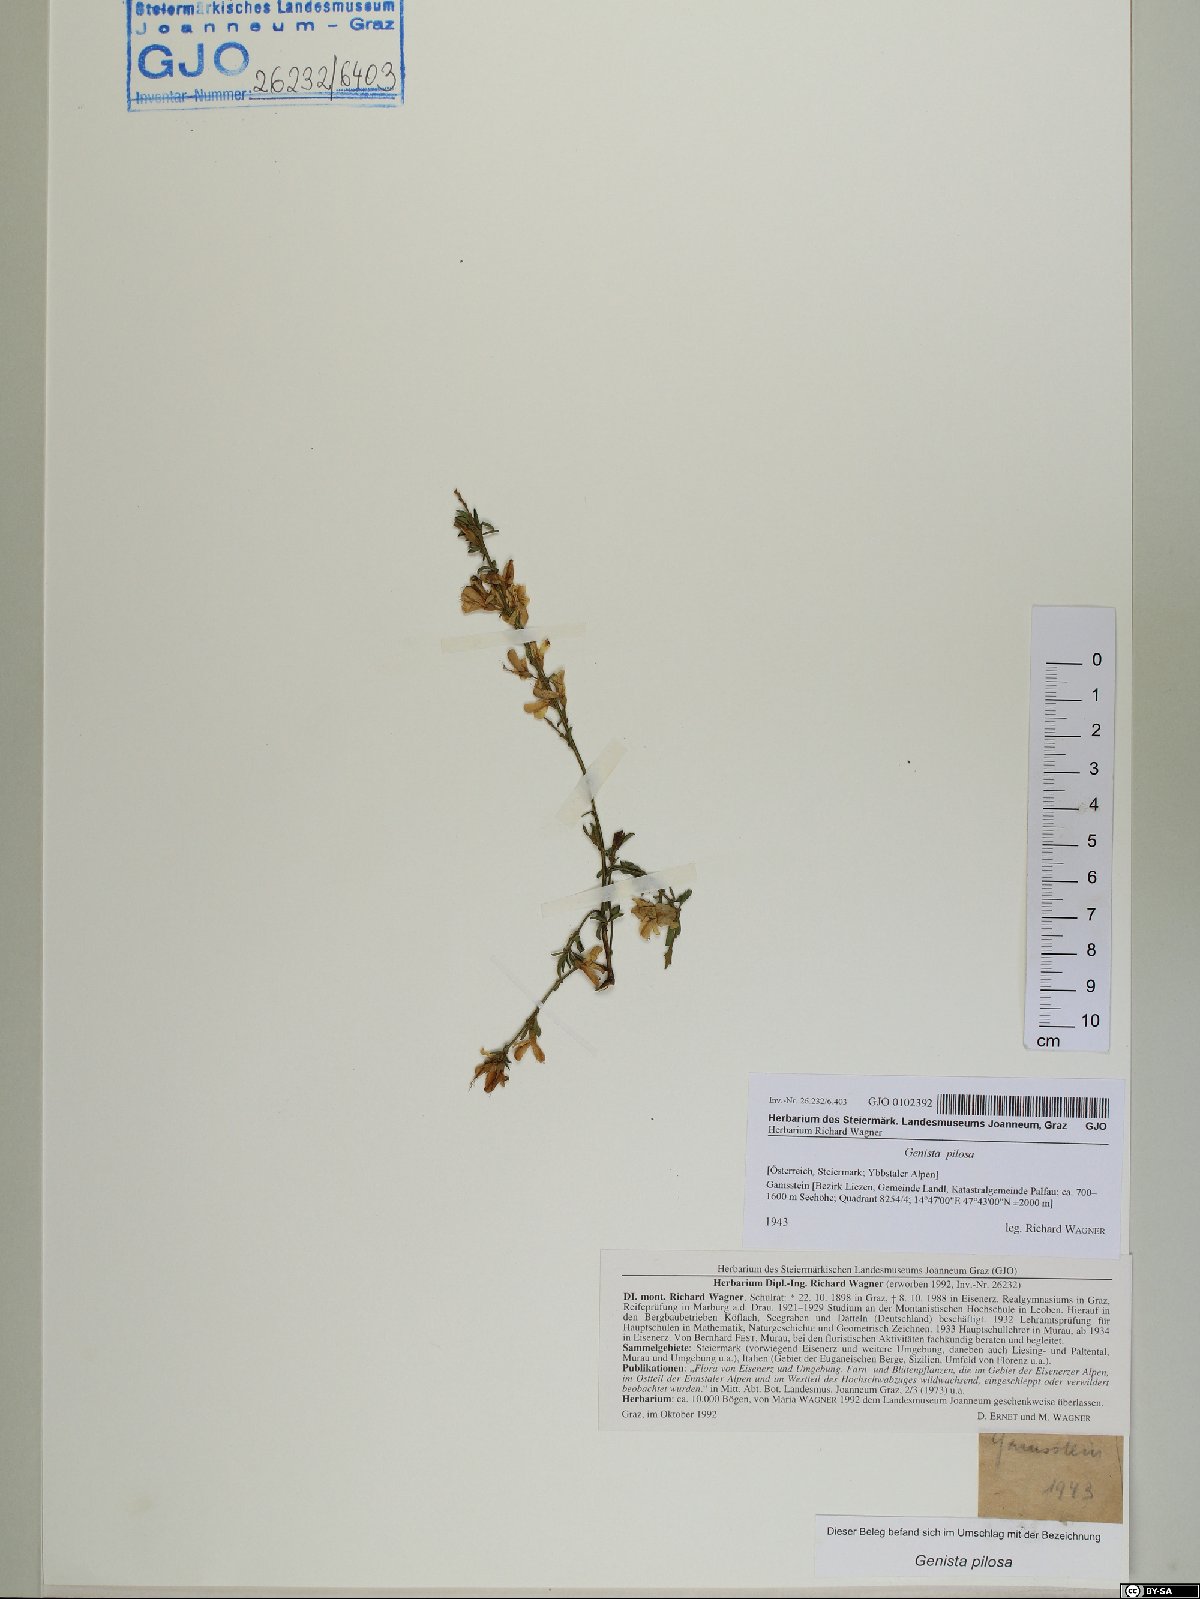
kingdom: Plantae
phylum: Tracheophyta
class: Magnoliopsida
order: Fabales
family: Fabaceae
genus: Genista
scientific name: Genista pilosa
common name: Hairy greenweed
